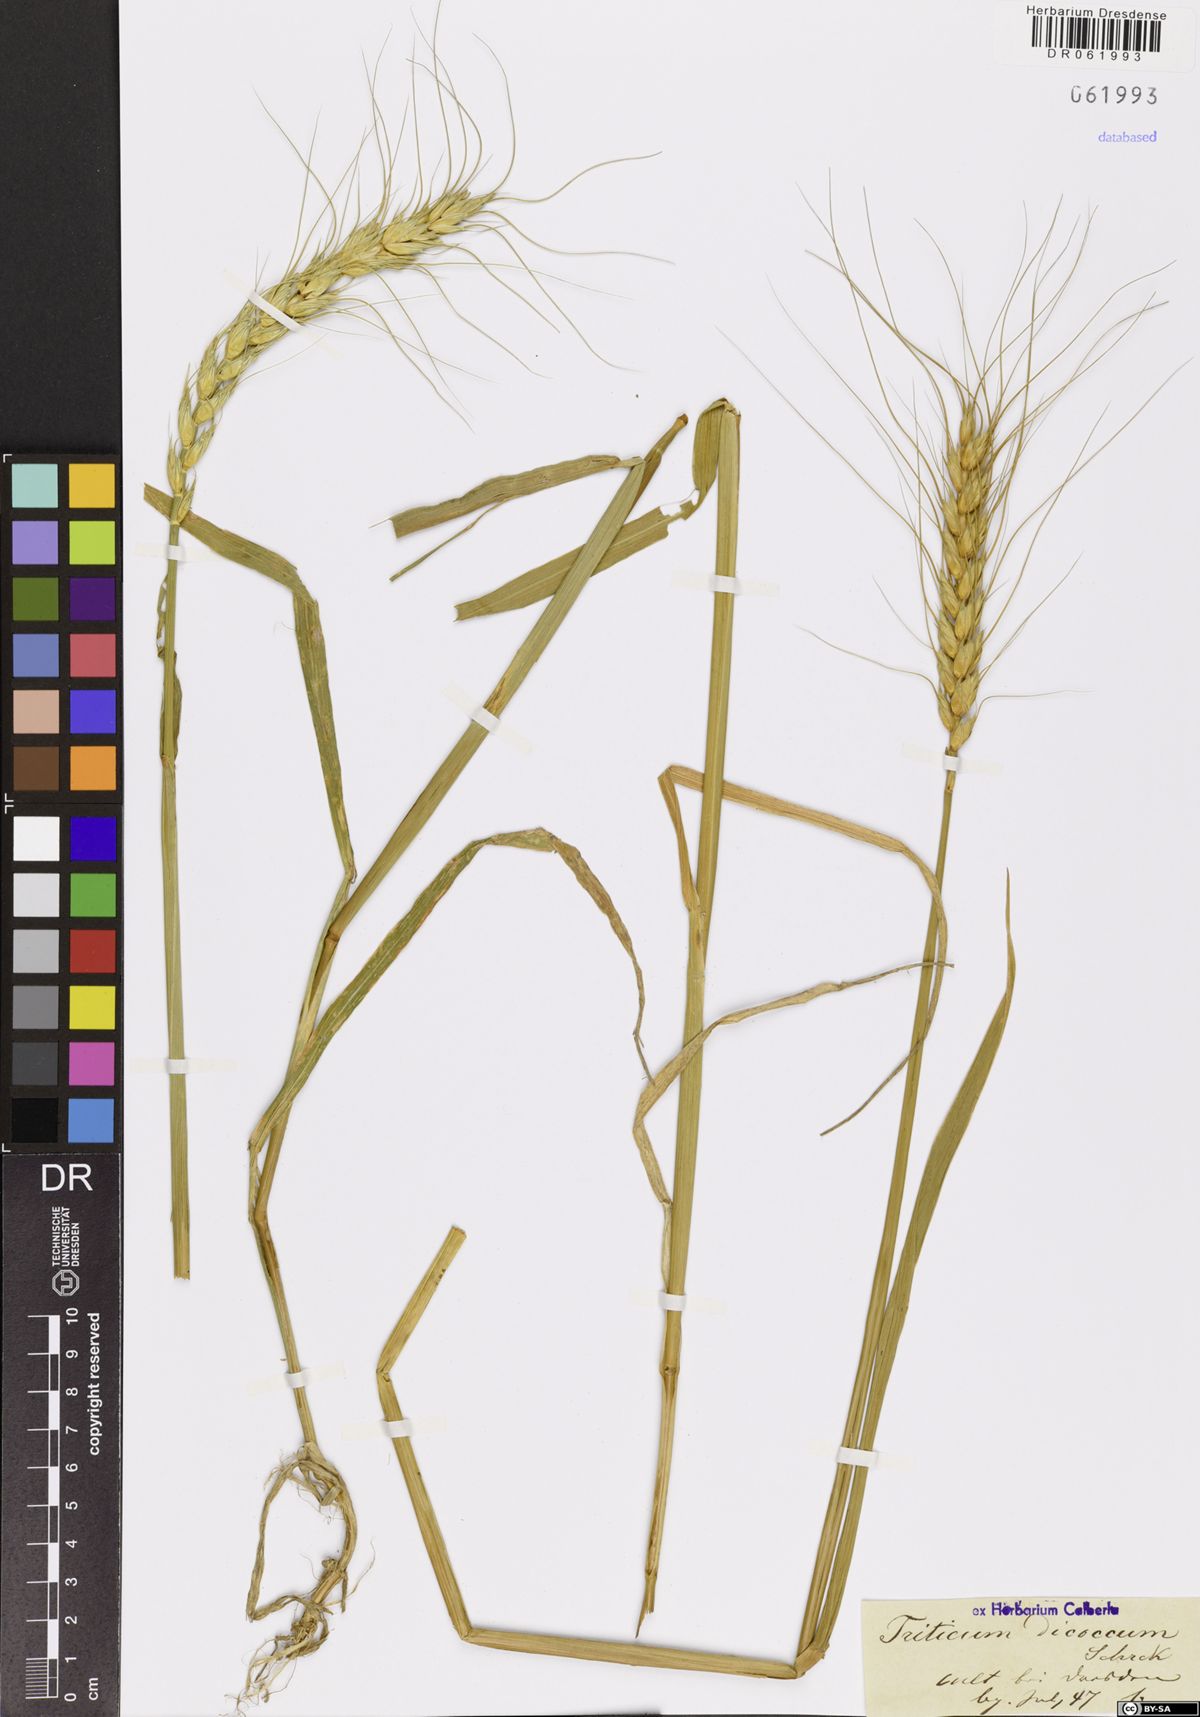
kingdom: Plantae
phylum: Tracheophyta
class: Liliopsida
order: Poales
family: Poaceae
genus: Triticum
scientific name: Triticum turgidum
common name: Rivet wheat
